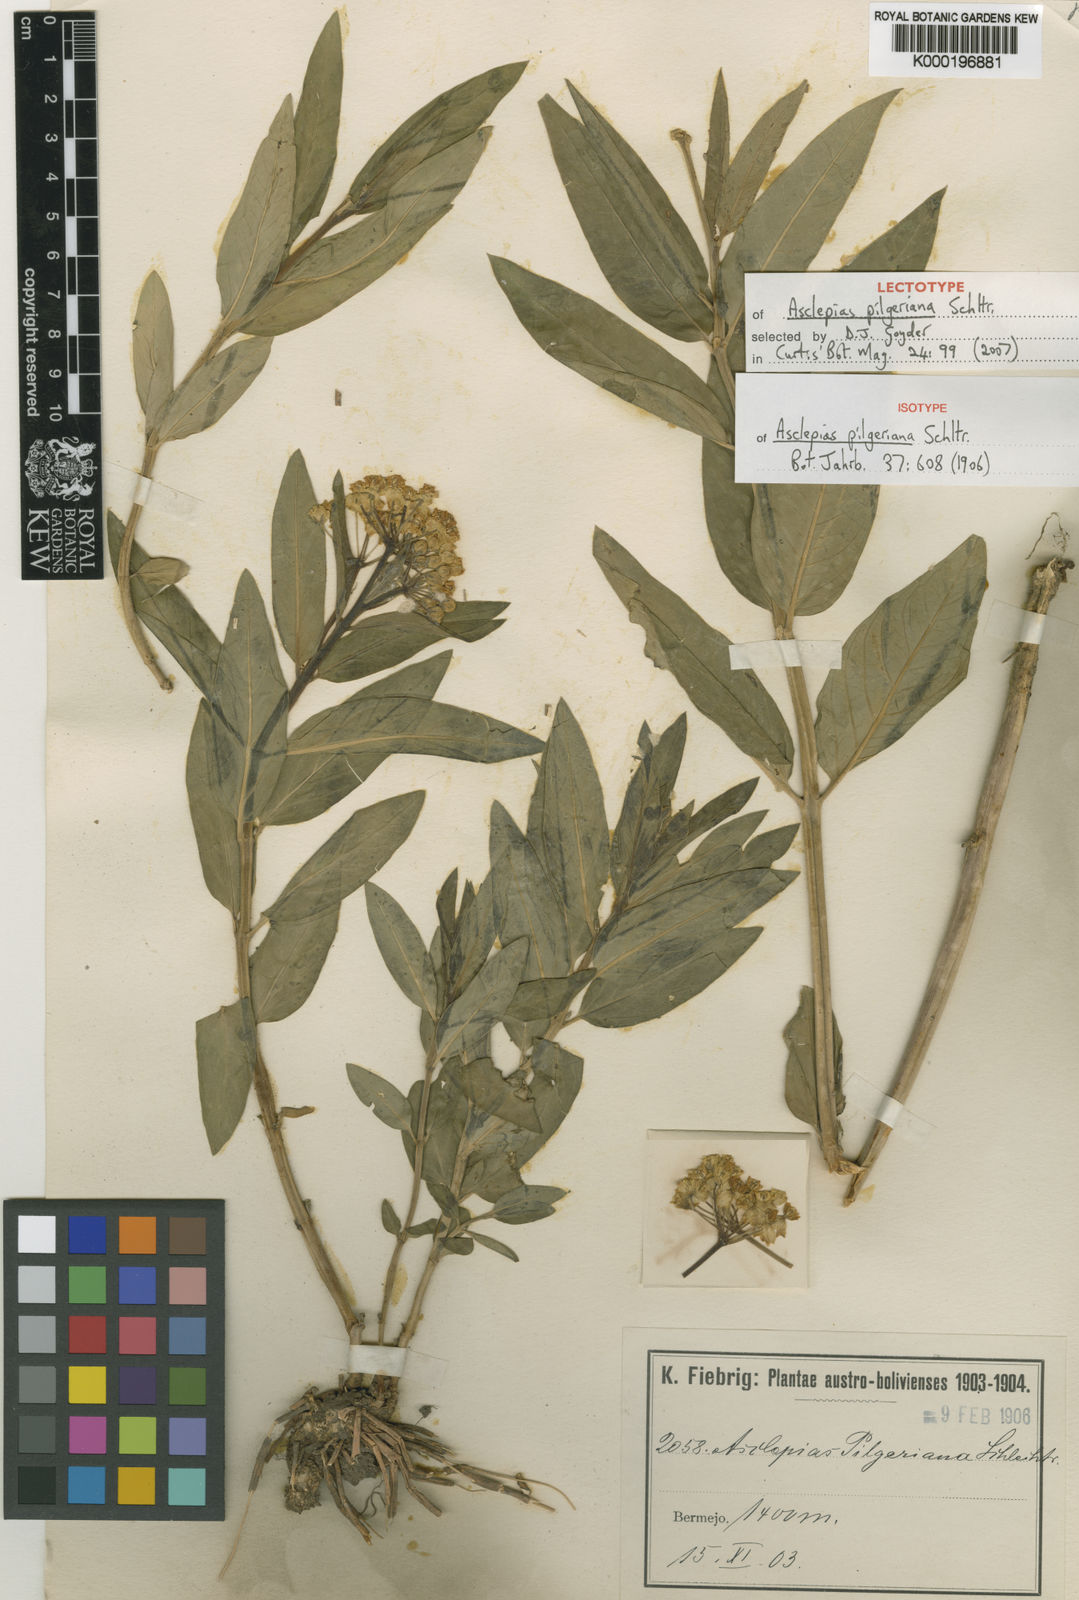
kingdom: Plantae
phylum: Tracheophyta
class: Magnoliopsida
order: Gentianales
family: Apocynaceae
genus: Asclepias
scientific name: Asclepias pilgeriana
